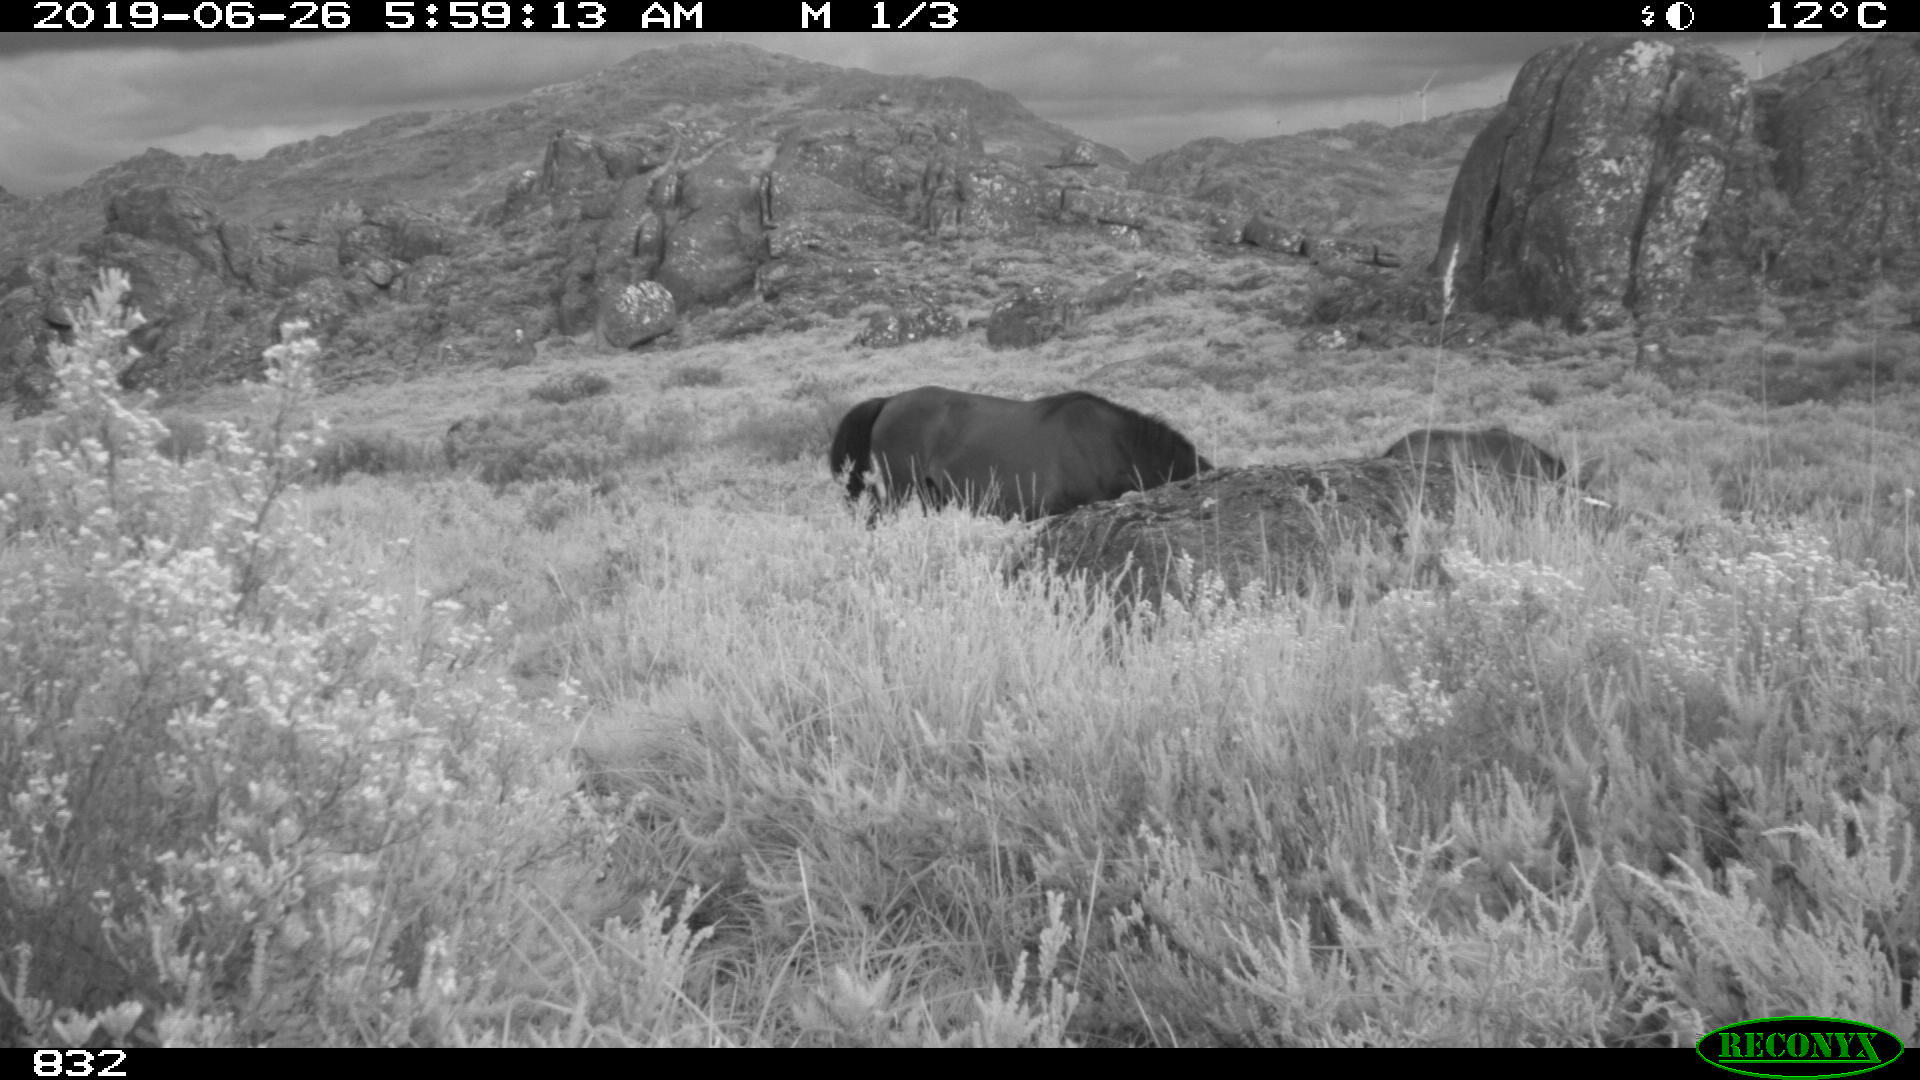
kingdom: Animalia
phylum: Chordata
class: Mammalia
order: Perissodactyla
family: Equidae
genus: Equus
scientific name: Equus caballus
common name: Horse
